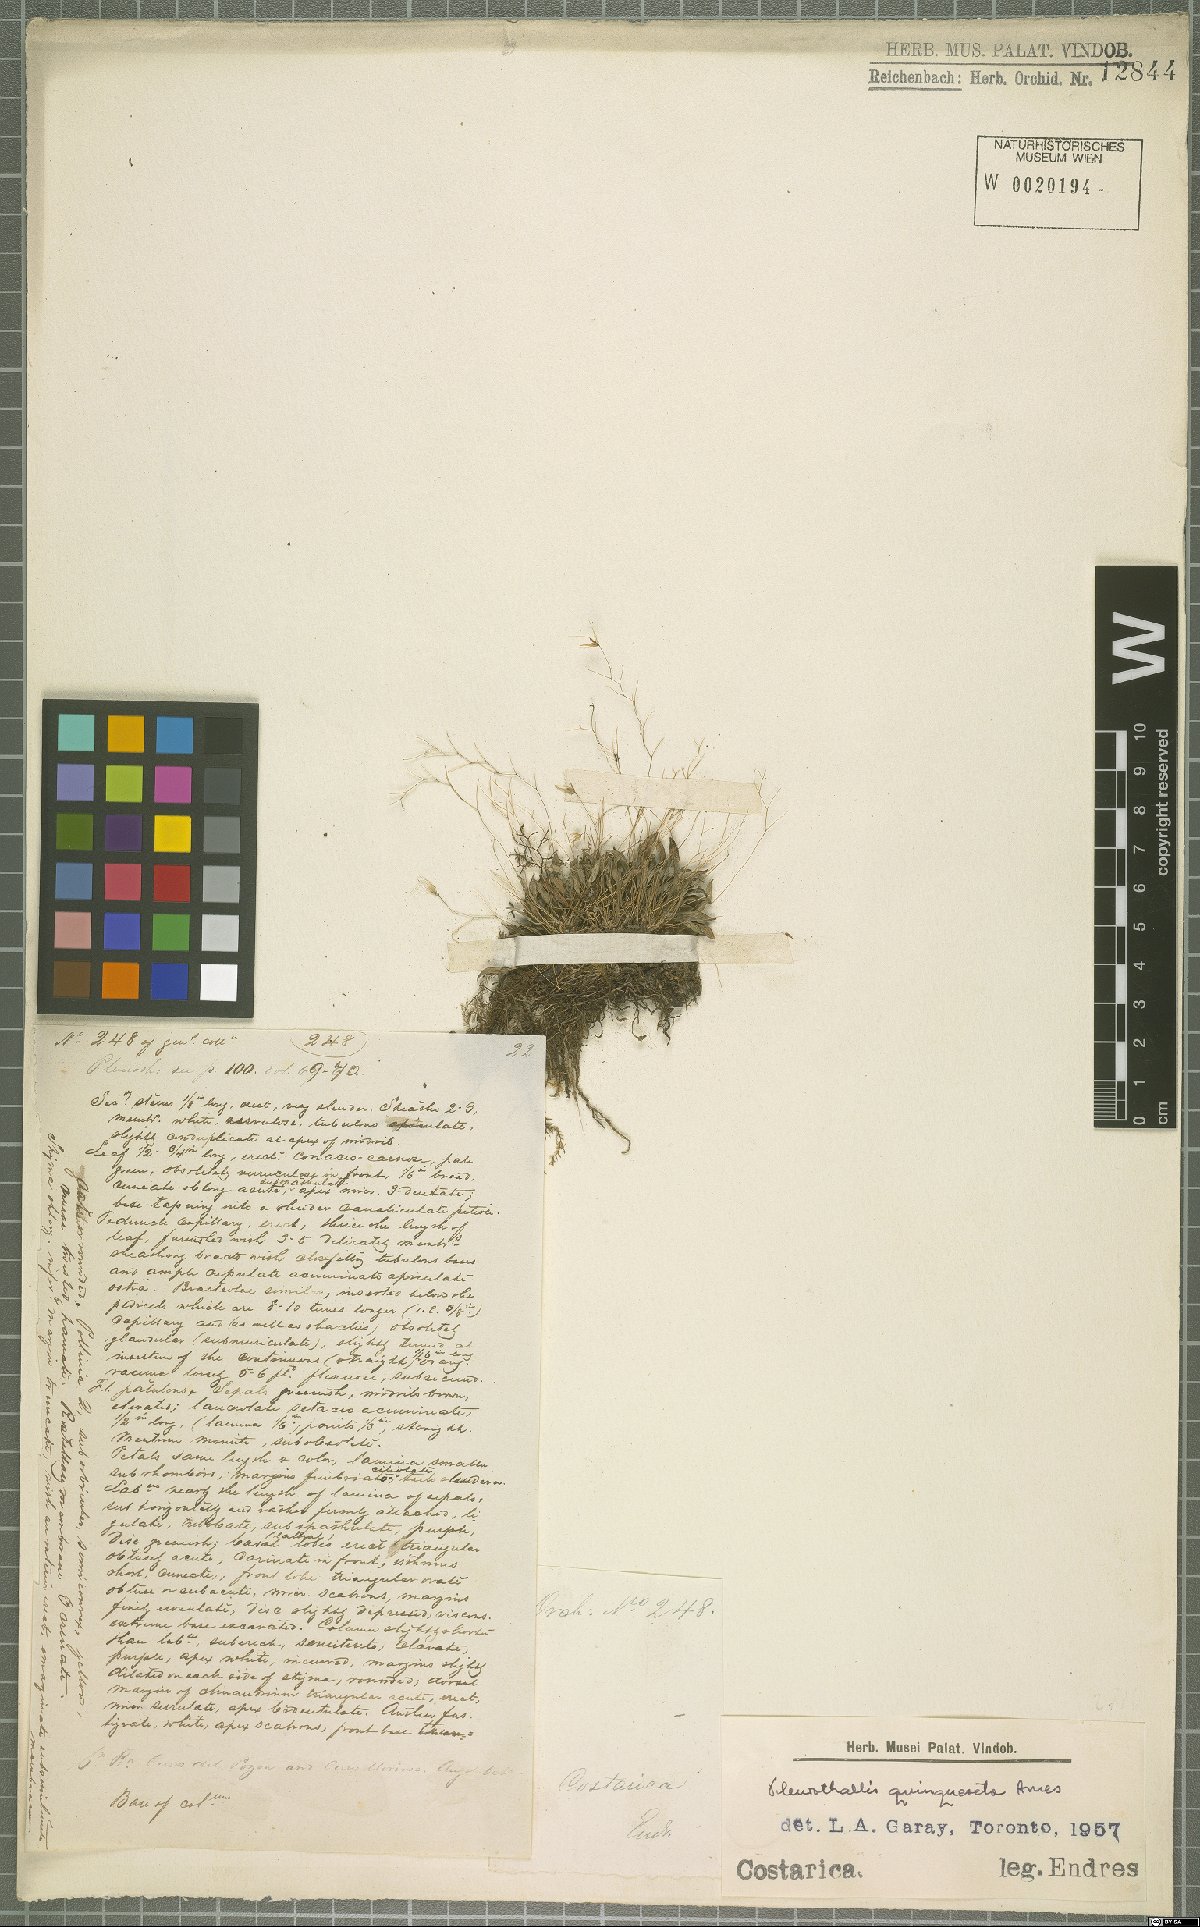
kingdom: Plantae
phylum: Tracheophyta
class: Liliopsida
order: Asparagales
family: Orchidaceae
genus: Muscarella
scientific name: Muscarella quinqueseta
